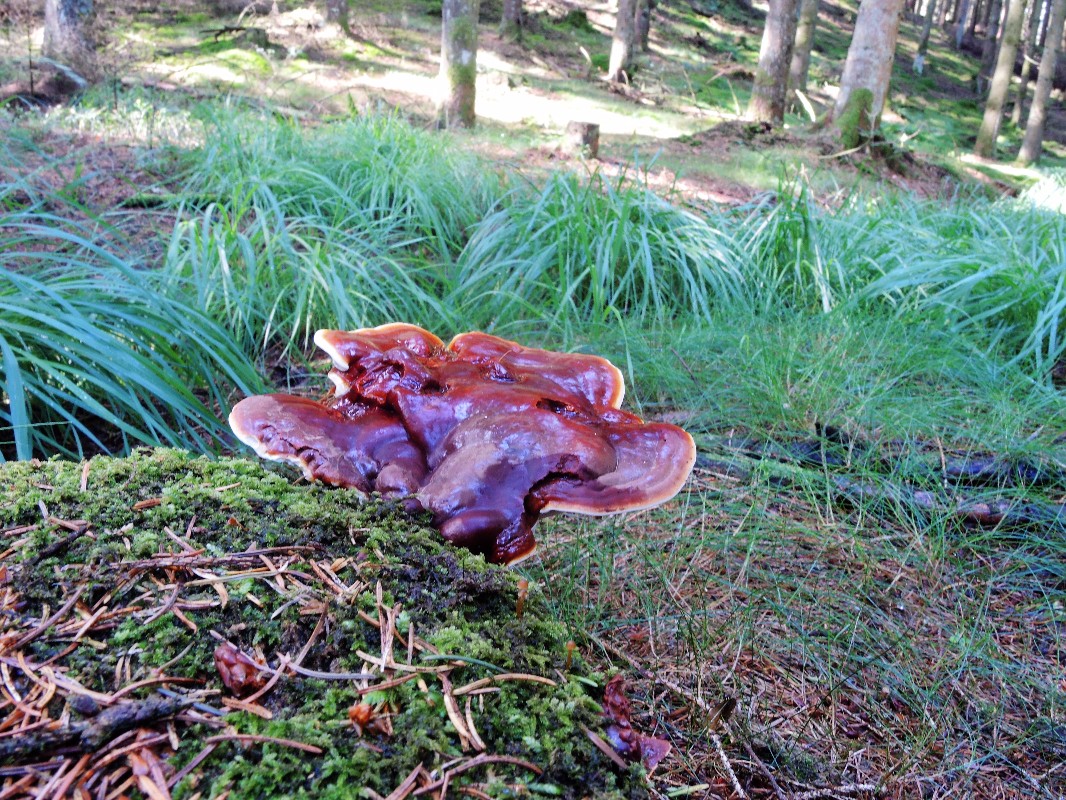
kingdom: Fungi
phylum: Basidiomycota
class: Agaricomycetes
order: Polyporales
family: Polyporaceae
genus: Ganoderma
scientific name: Ganoderma lucidum
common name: skinnende lakporesvamp
